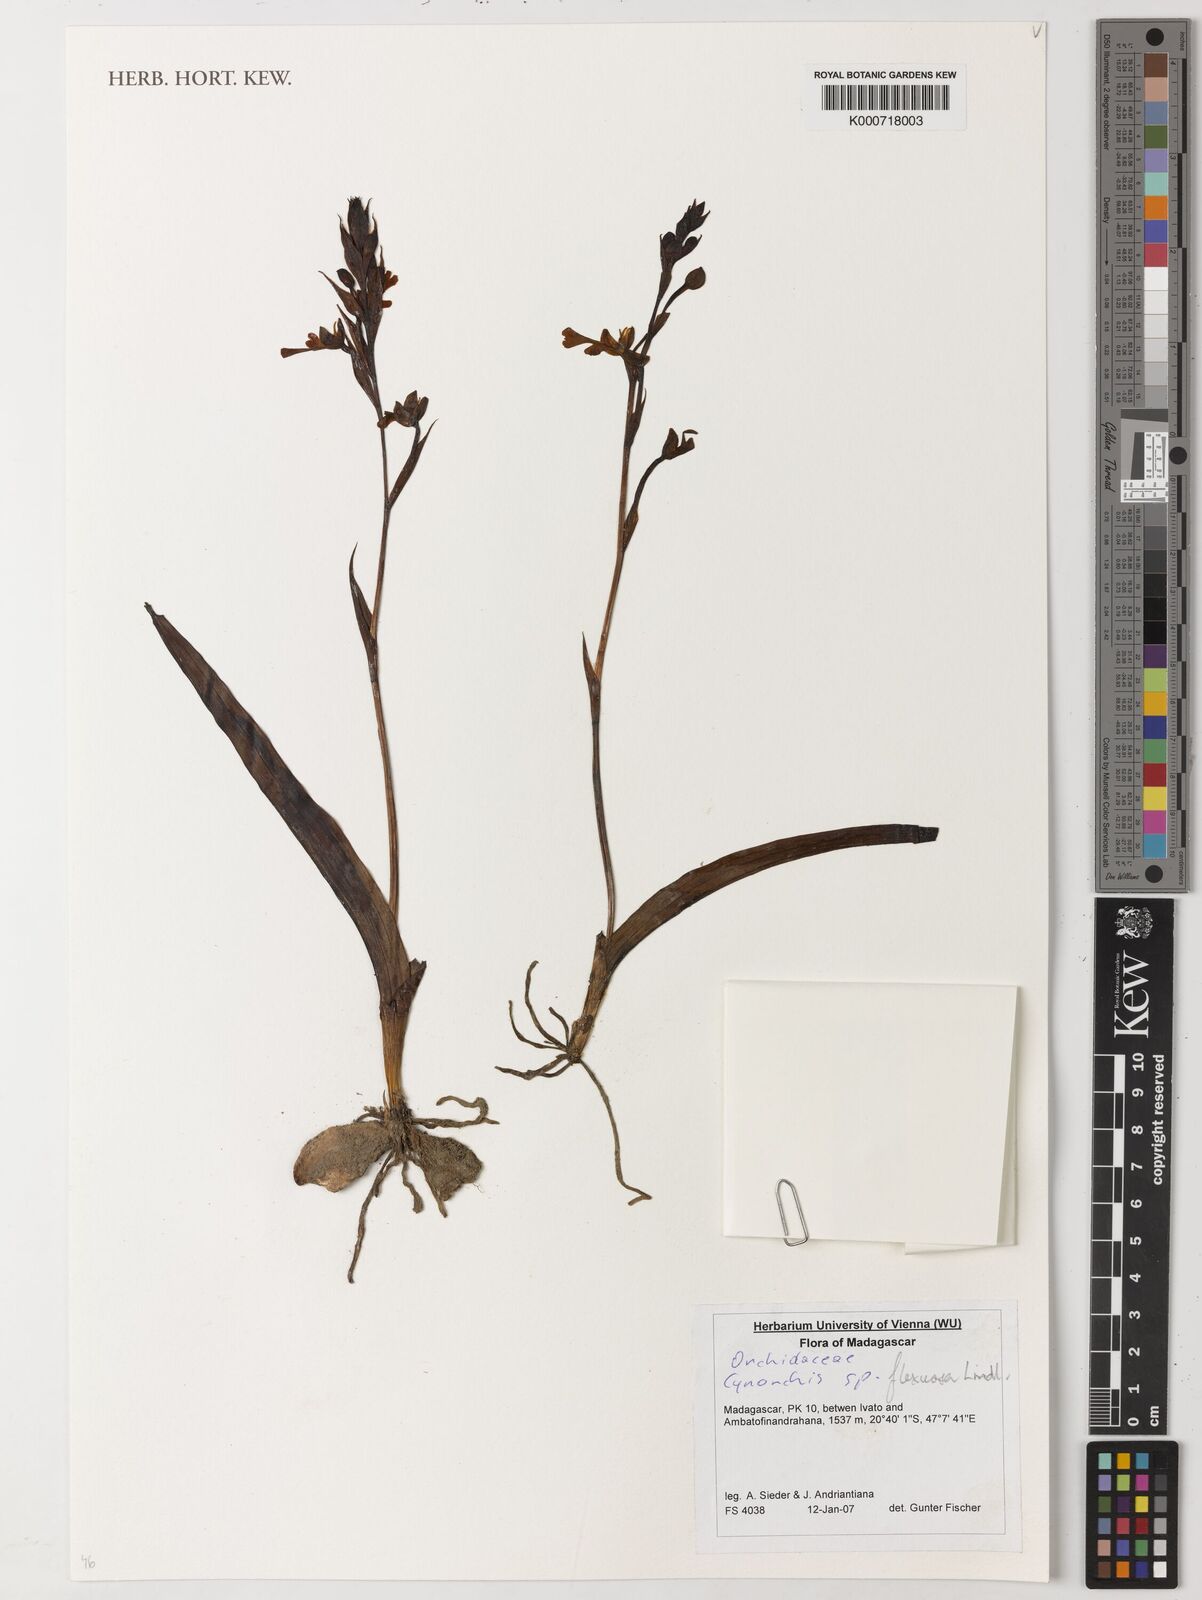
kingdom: Plantae
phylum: Tracheophyta
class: Liliopsida
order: Asparagales
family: Orchidaceae
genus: Cynorkis
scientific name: Cynorkis
